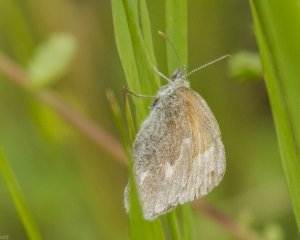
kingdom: Animalia
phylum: Arthropoda
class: Insecta
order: Lepidoptera
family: Nymphalidae
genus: Coenonympha
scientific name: Coenonympha tullia
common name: Large Heath
